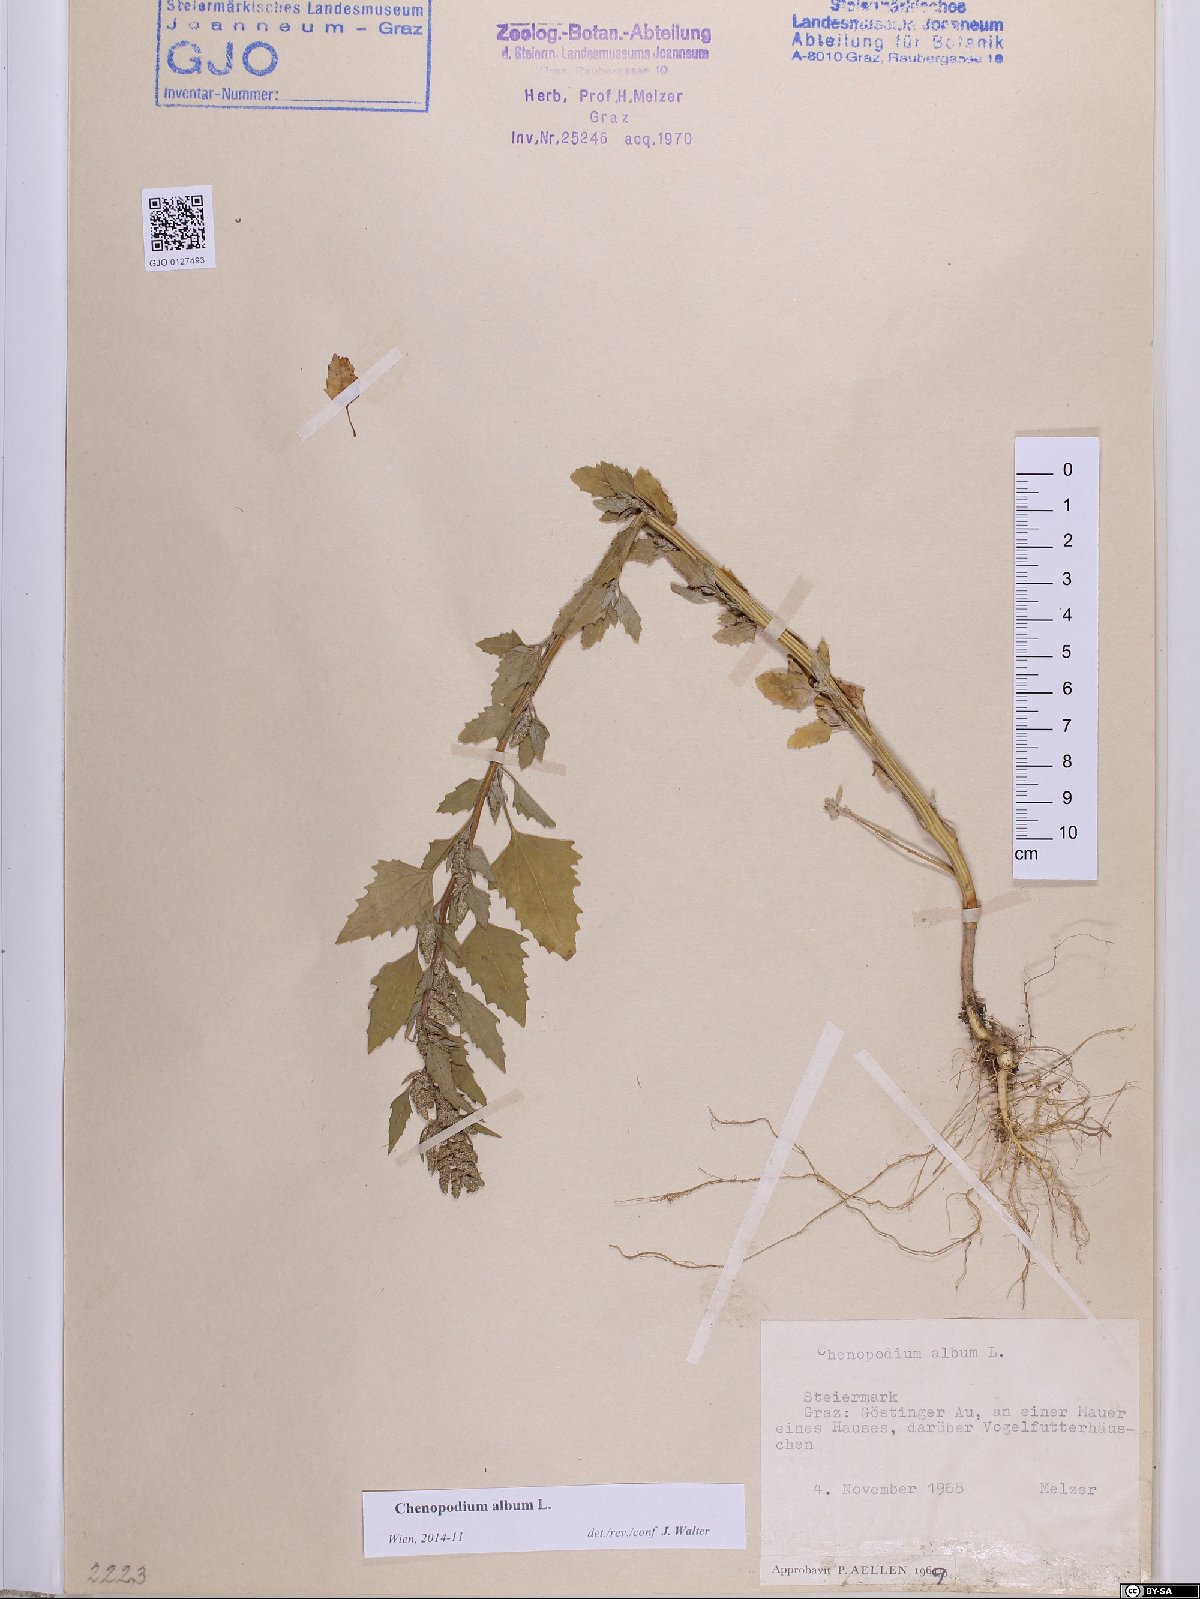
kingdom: Plantae
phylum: Tracheophyta
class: Magnoliopsida
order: Caryophyllales
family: Amaranthaceae
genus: Chenopodium
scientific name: Chenopodium album
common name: Fat-hen
